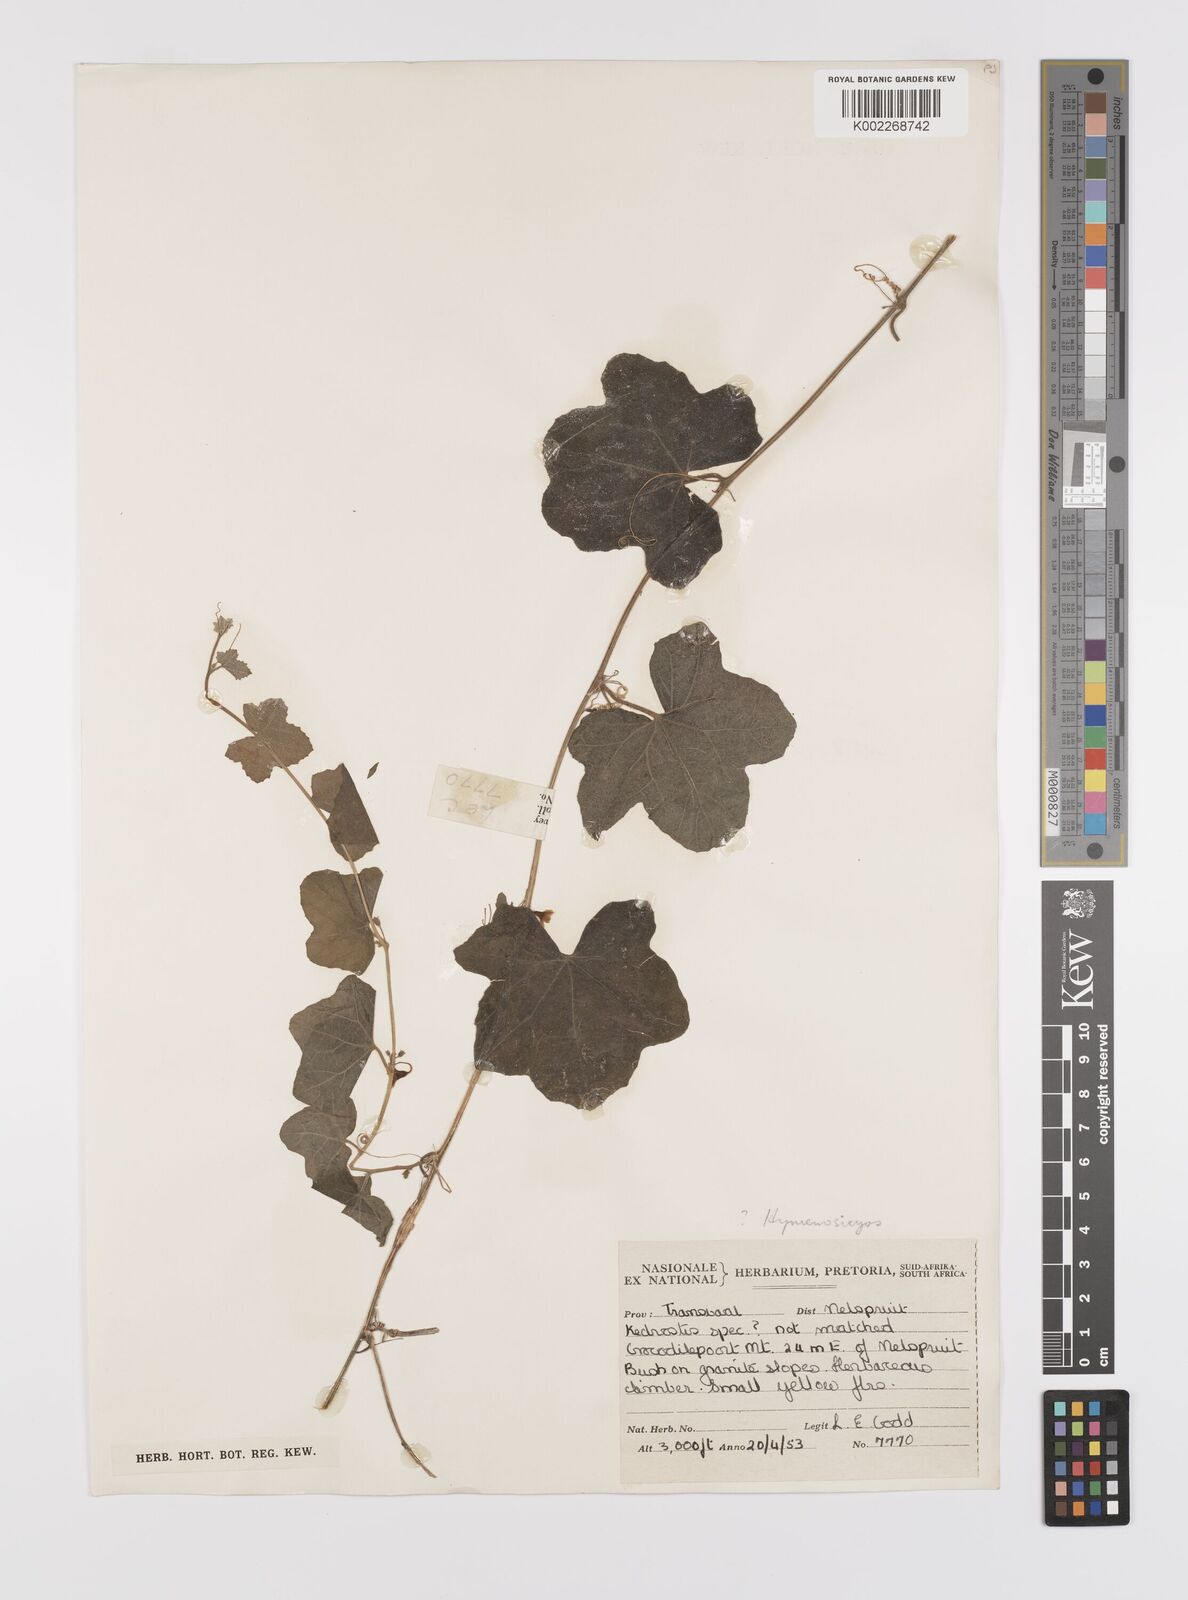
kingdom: Plantae
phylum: Tracheophyta
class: Magnoliopsida
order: Cucurbitales
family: Cucurbitaceae
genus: Cucumis
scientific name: Cucumis cinereus
